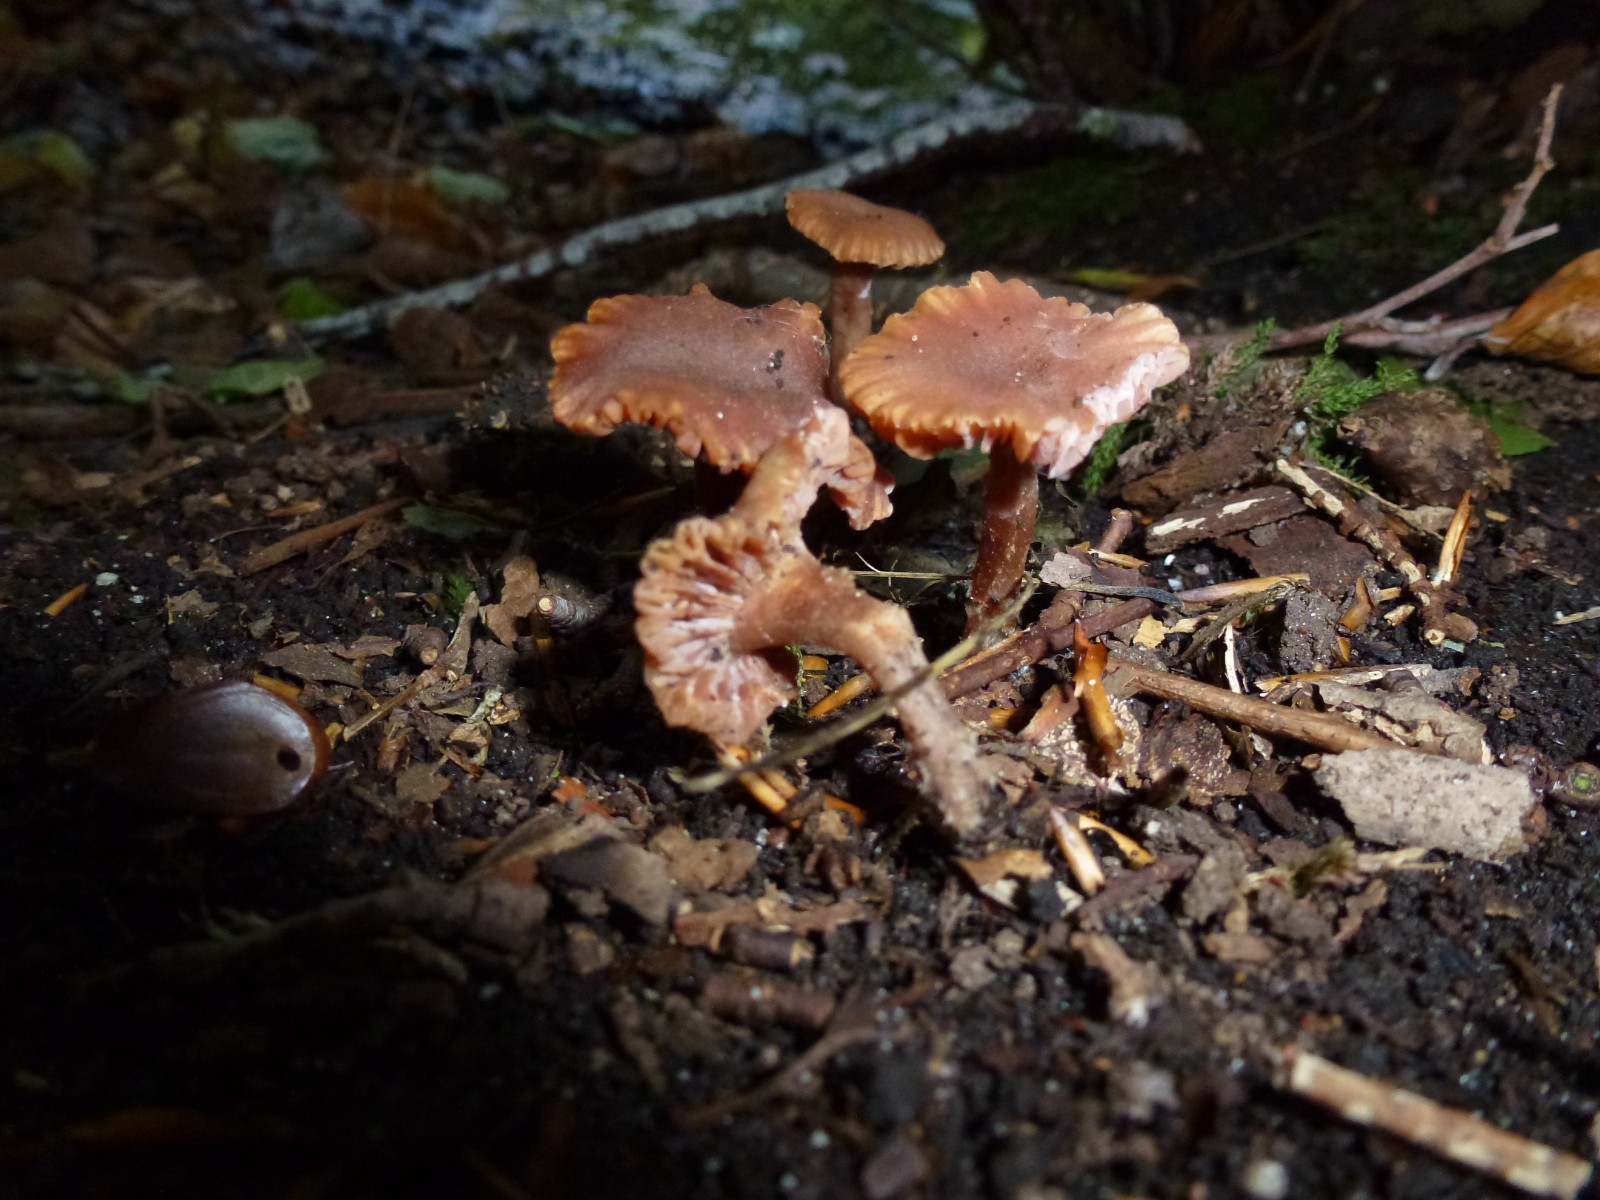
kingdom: Fungi
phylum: Basidiomycota
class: Agaricomycetes
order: Agaricales
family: Hydnangiaceae
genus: Laccaria
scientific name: Laccaria laccata
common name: rød ametysthat
